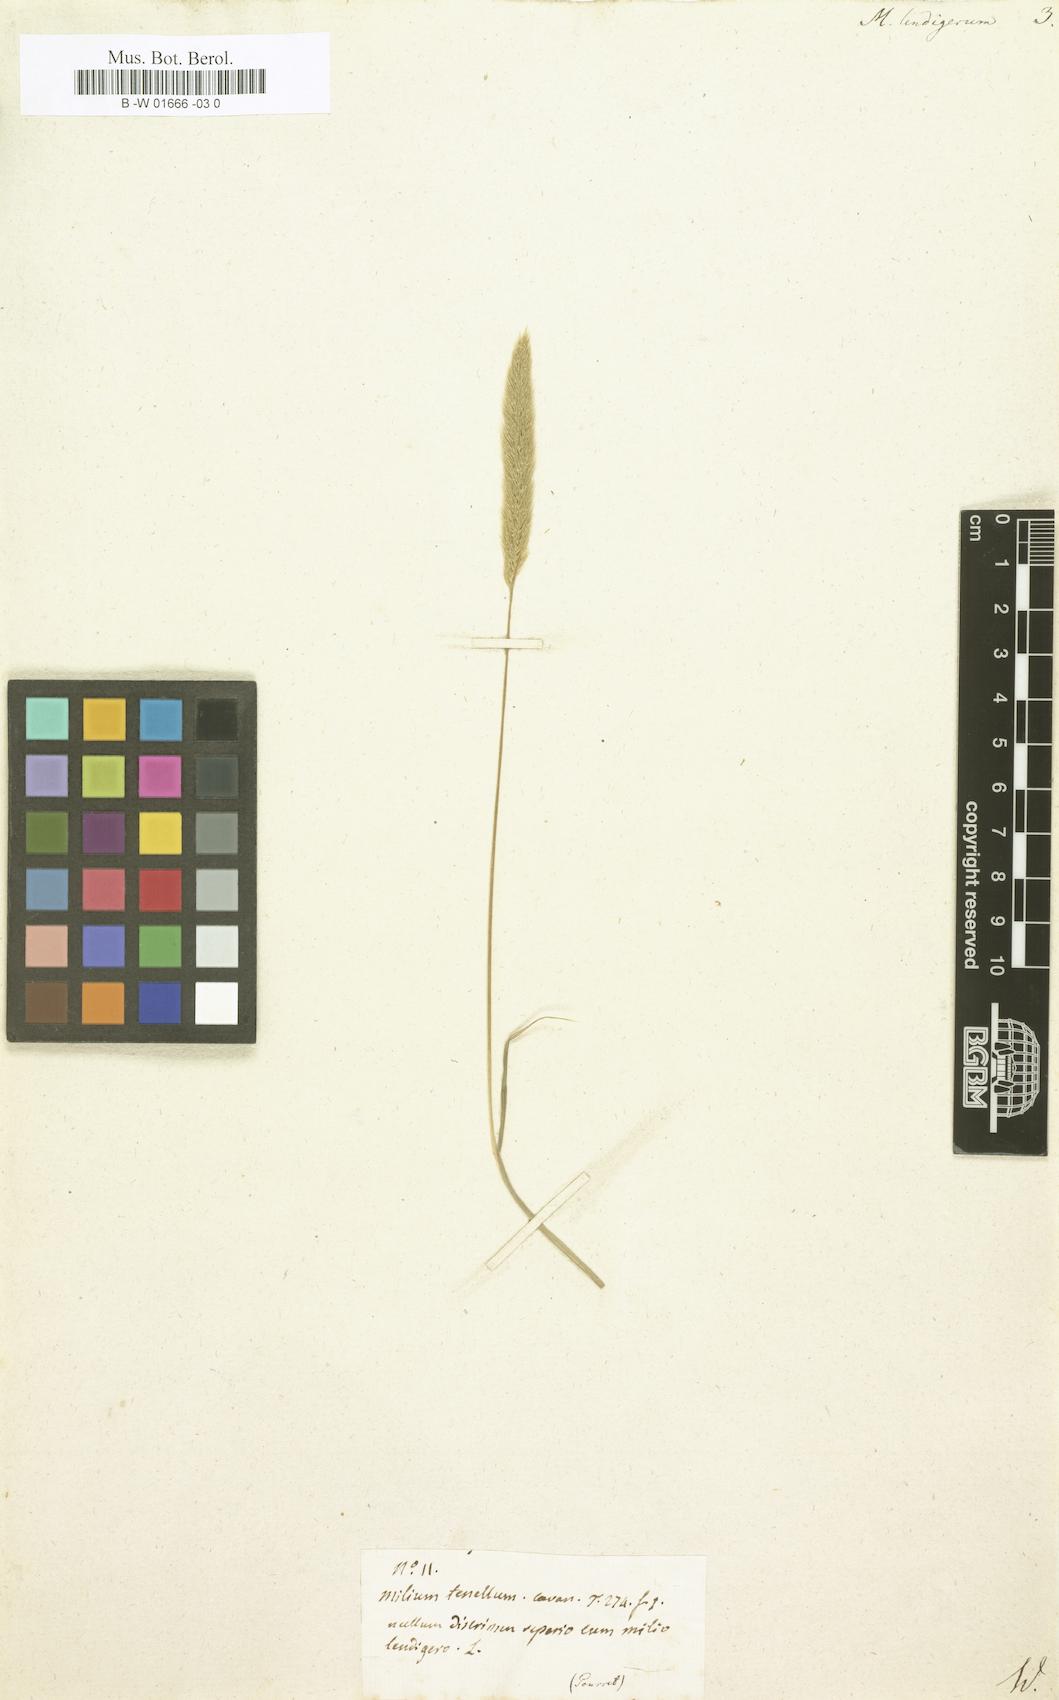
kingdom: Plantae
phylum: Tracheophyta
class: Liliopsida
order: Poales
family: Poaceae
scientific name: Poaceae
